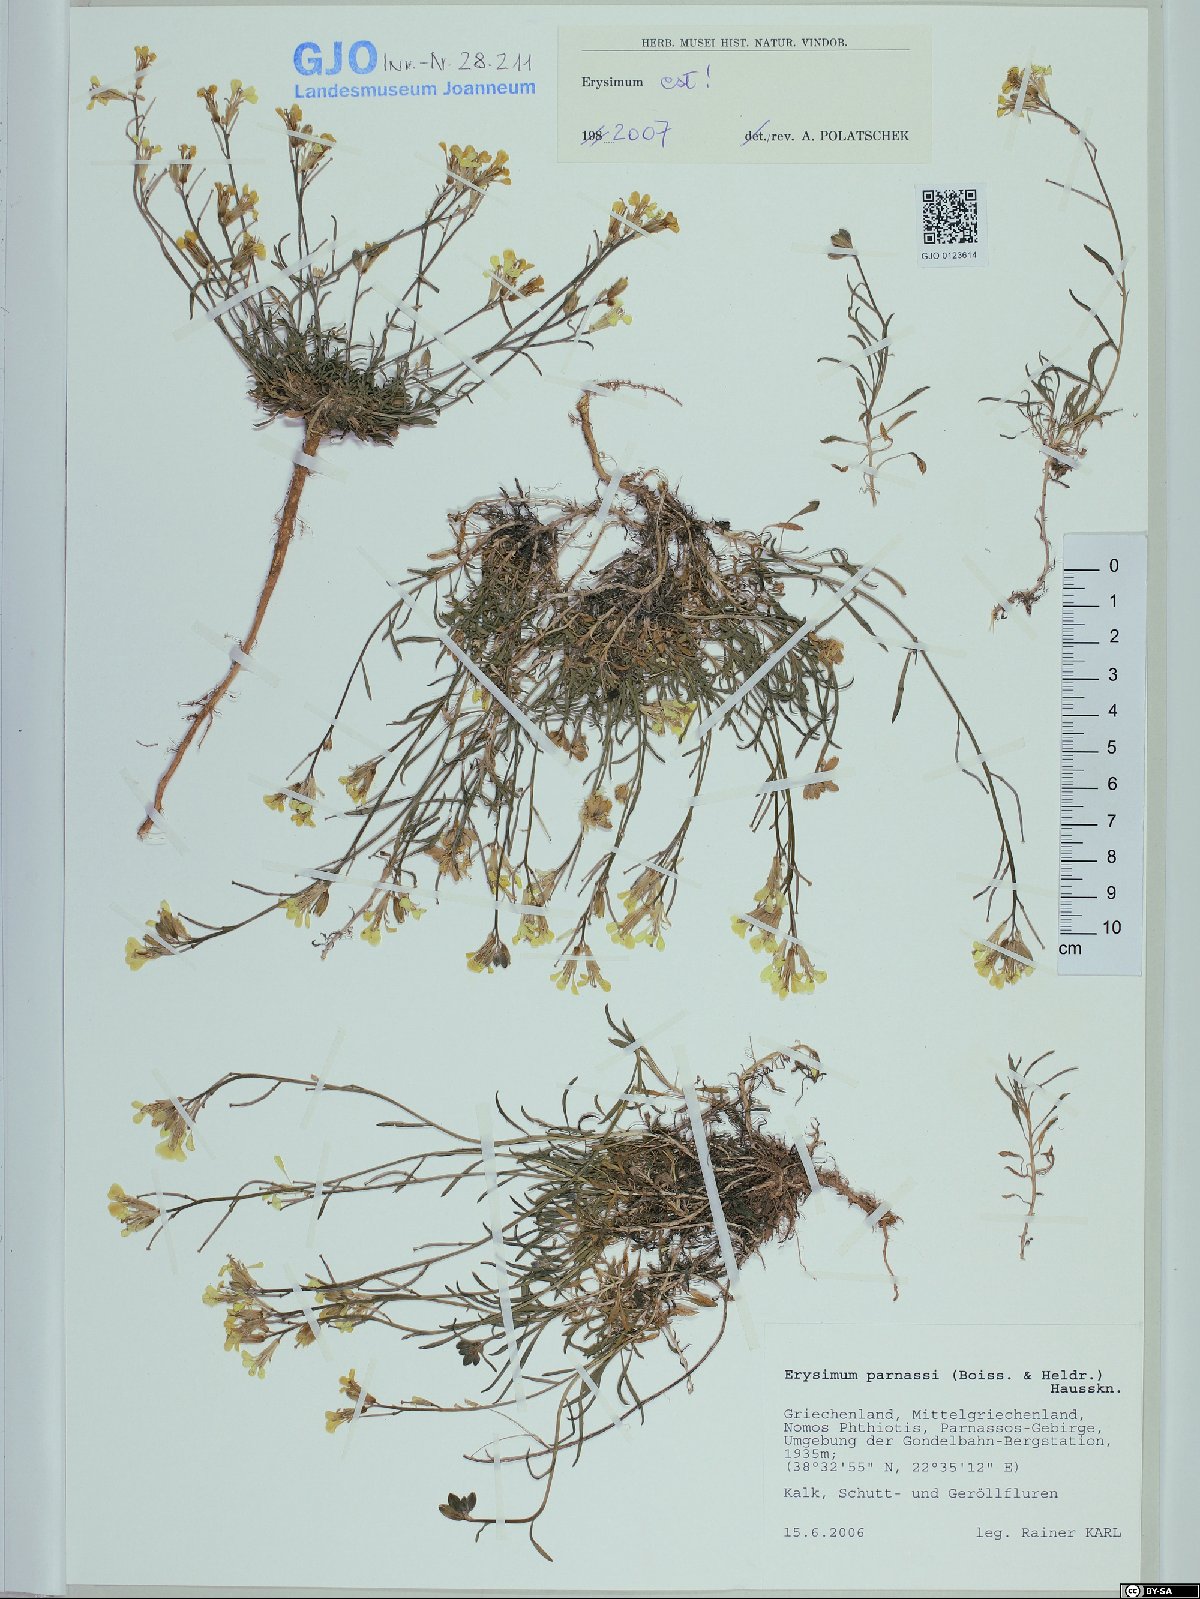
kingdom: Plantae
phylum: Tracheophyta
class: Magnoliopsida
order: Brassicales
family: Brassicaceae
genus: Erysimum
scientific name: Erysimum parnassi
